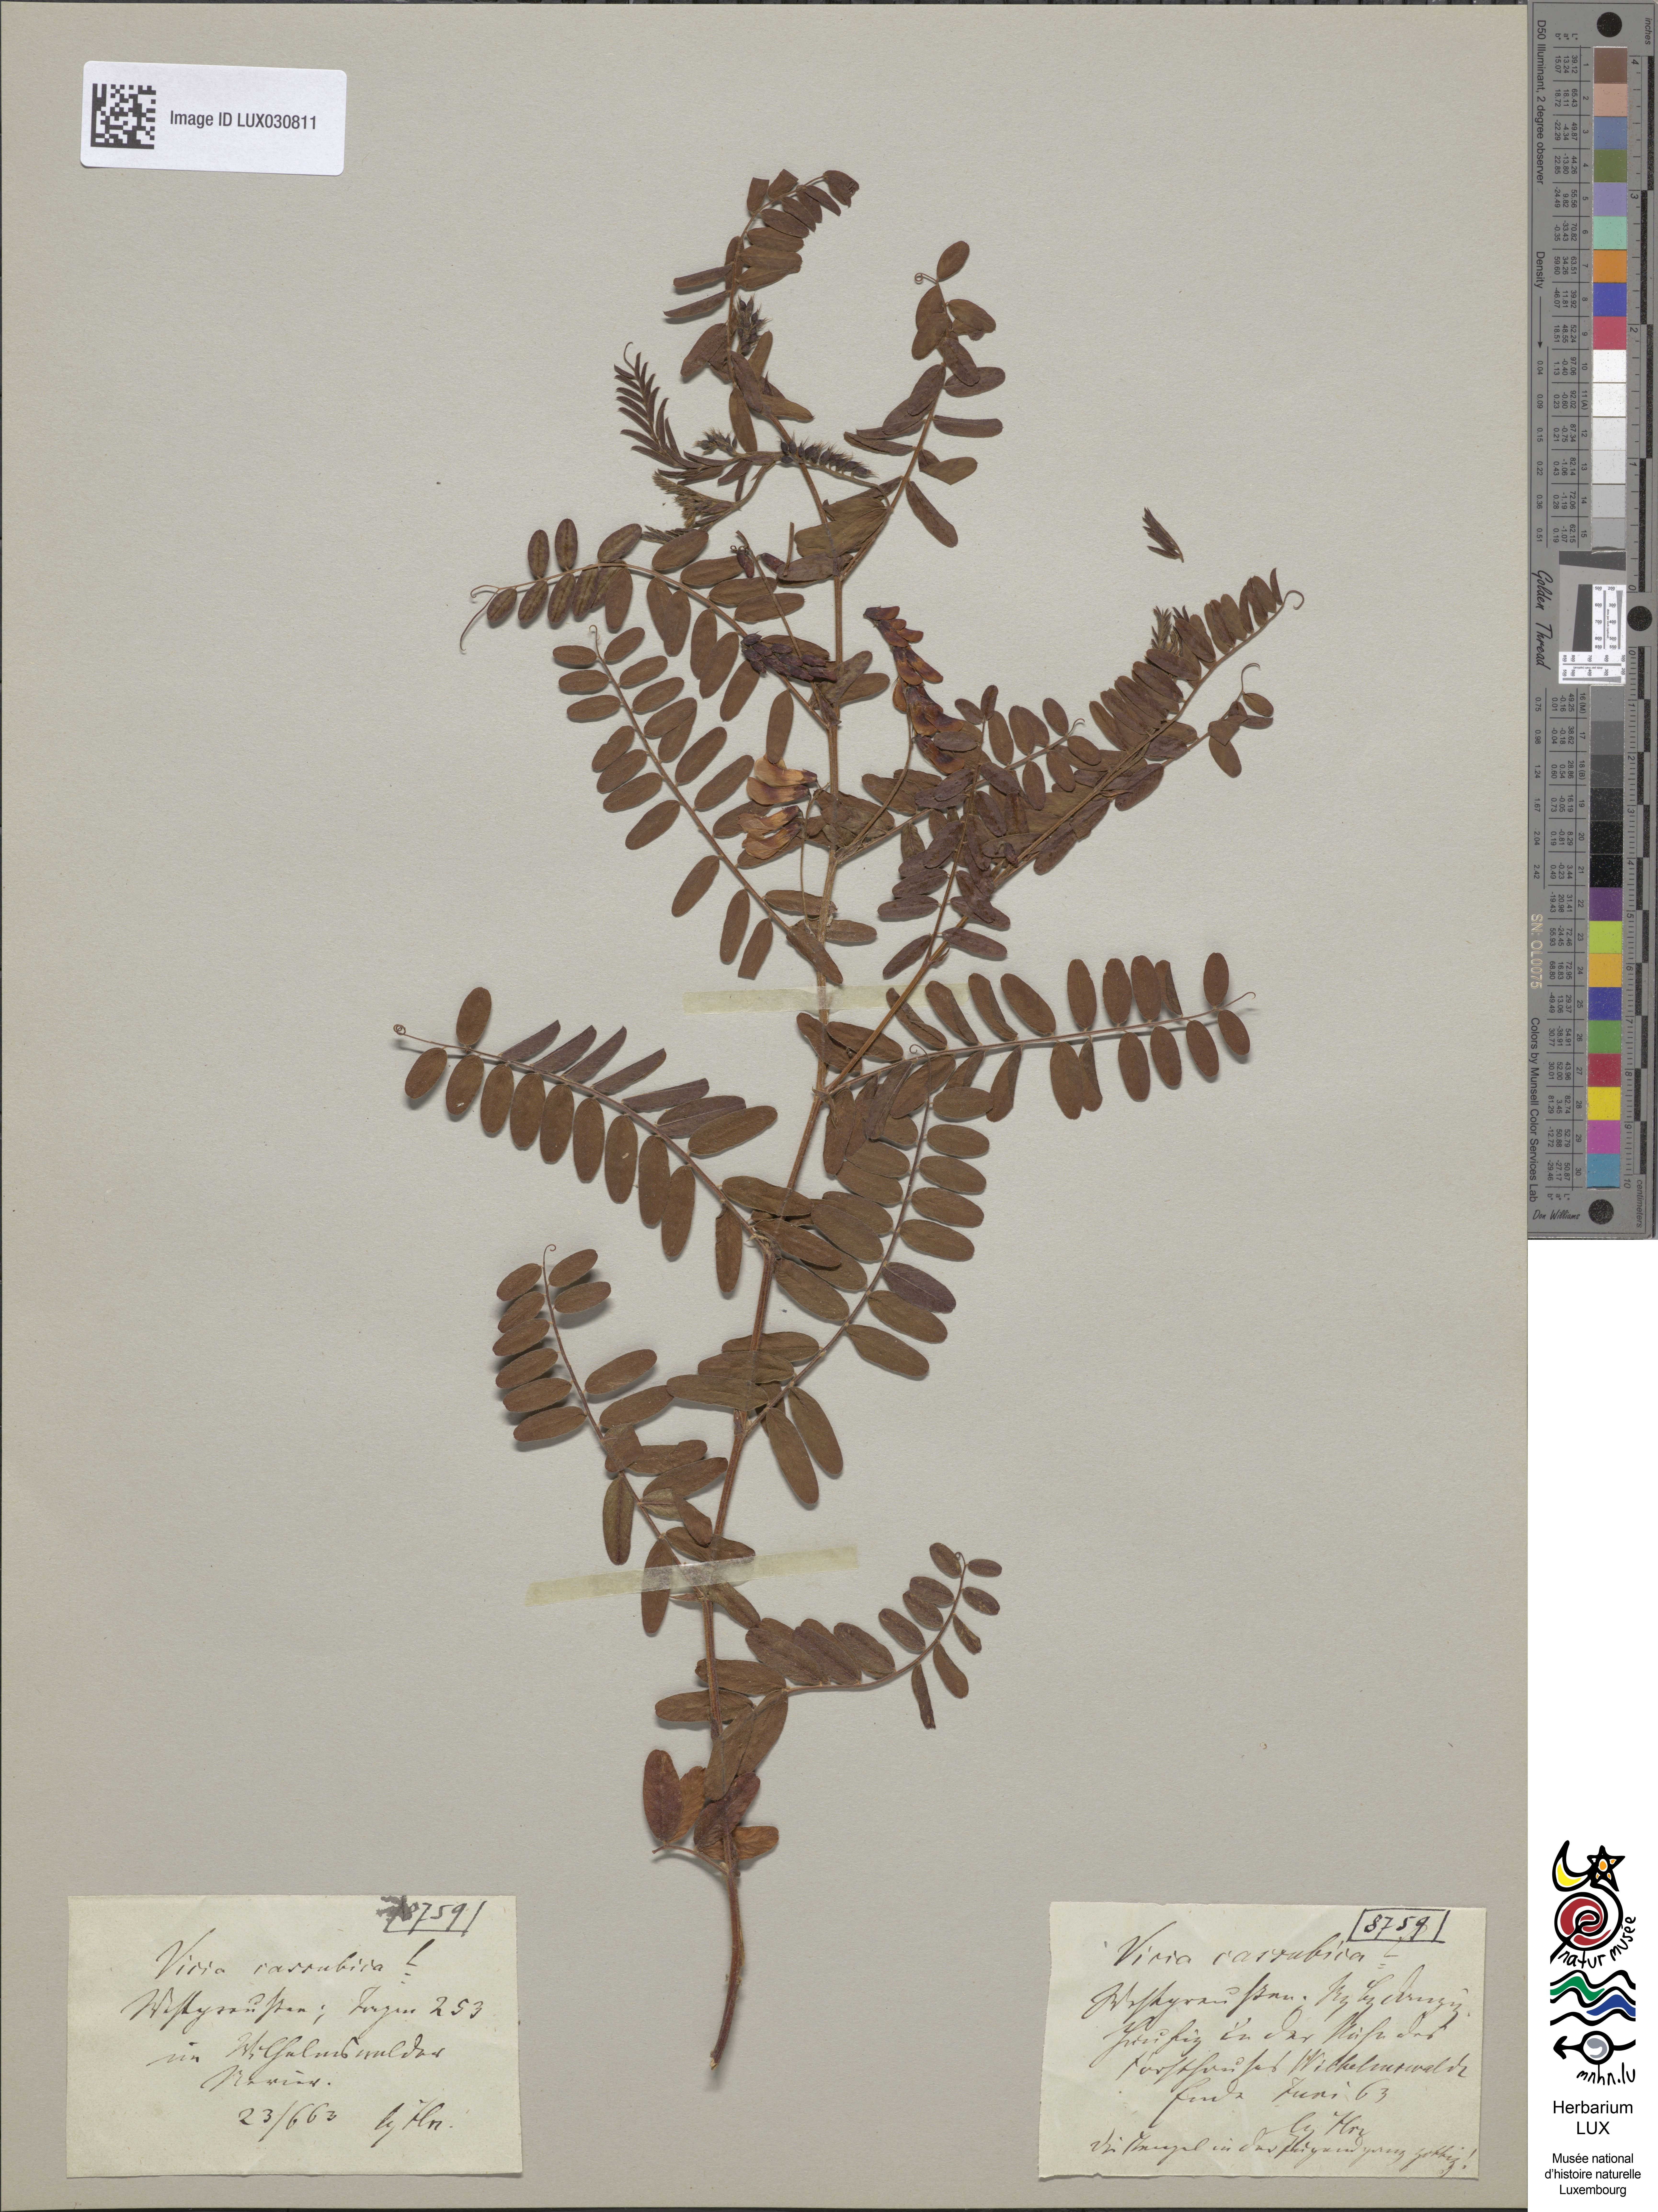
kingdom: Plantae
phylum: Tracheophyta
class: Magnoliopsida
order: Fabales
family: Fabaceae
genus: Vicia
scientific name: Vicia cassubica
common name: Danzig vetch
